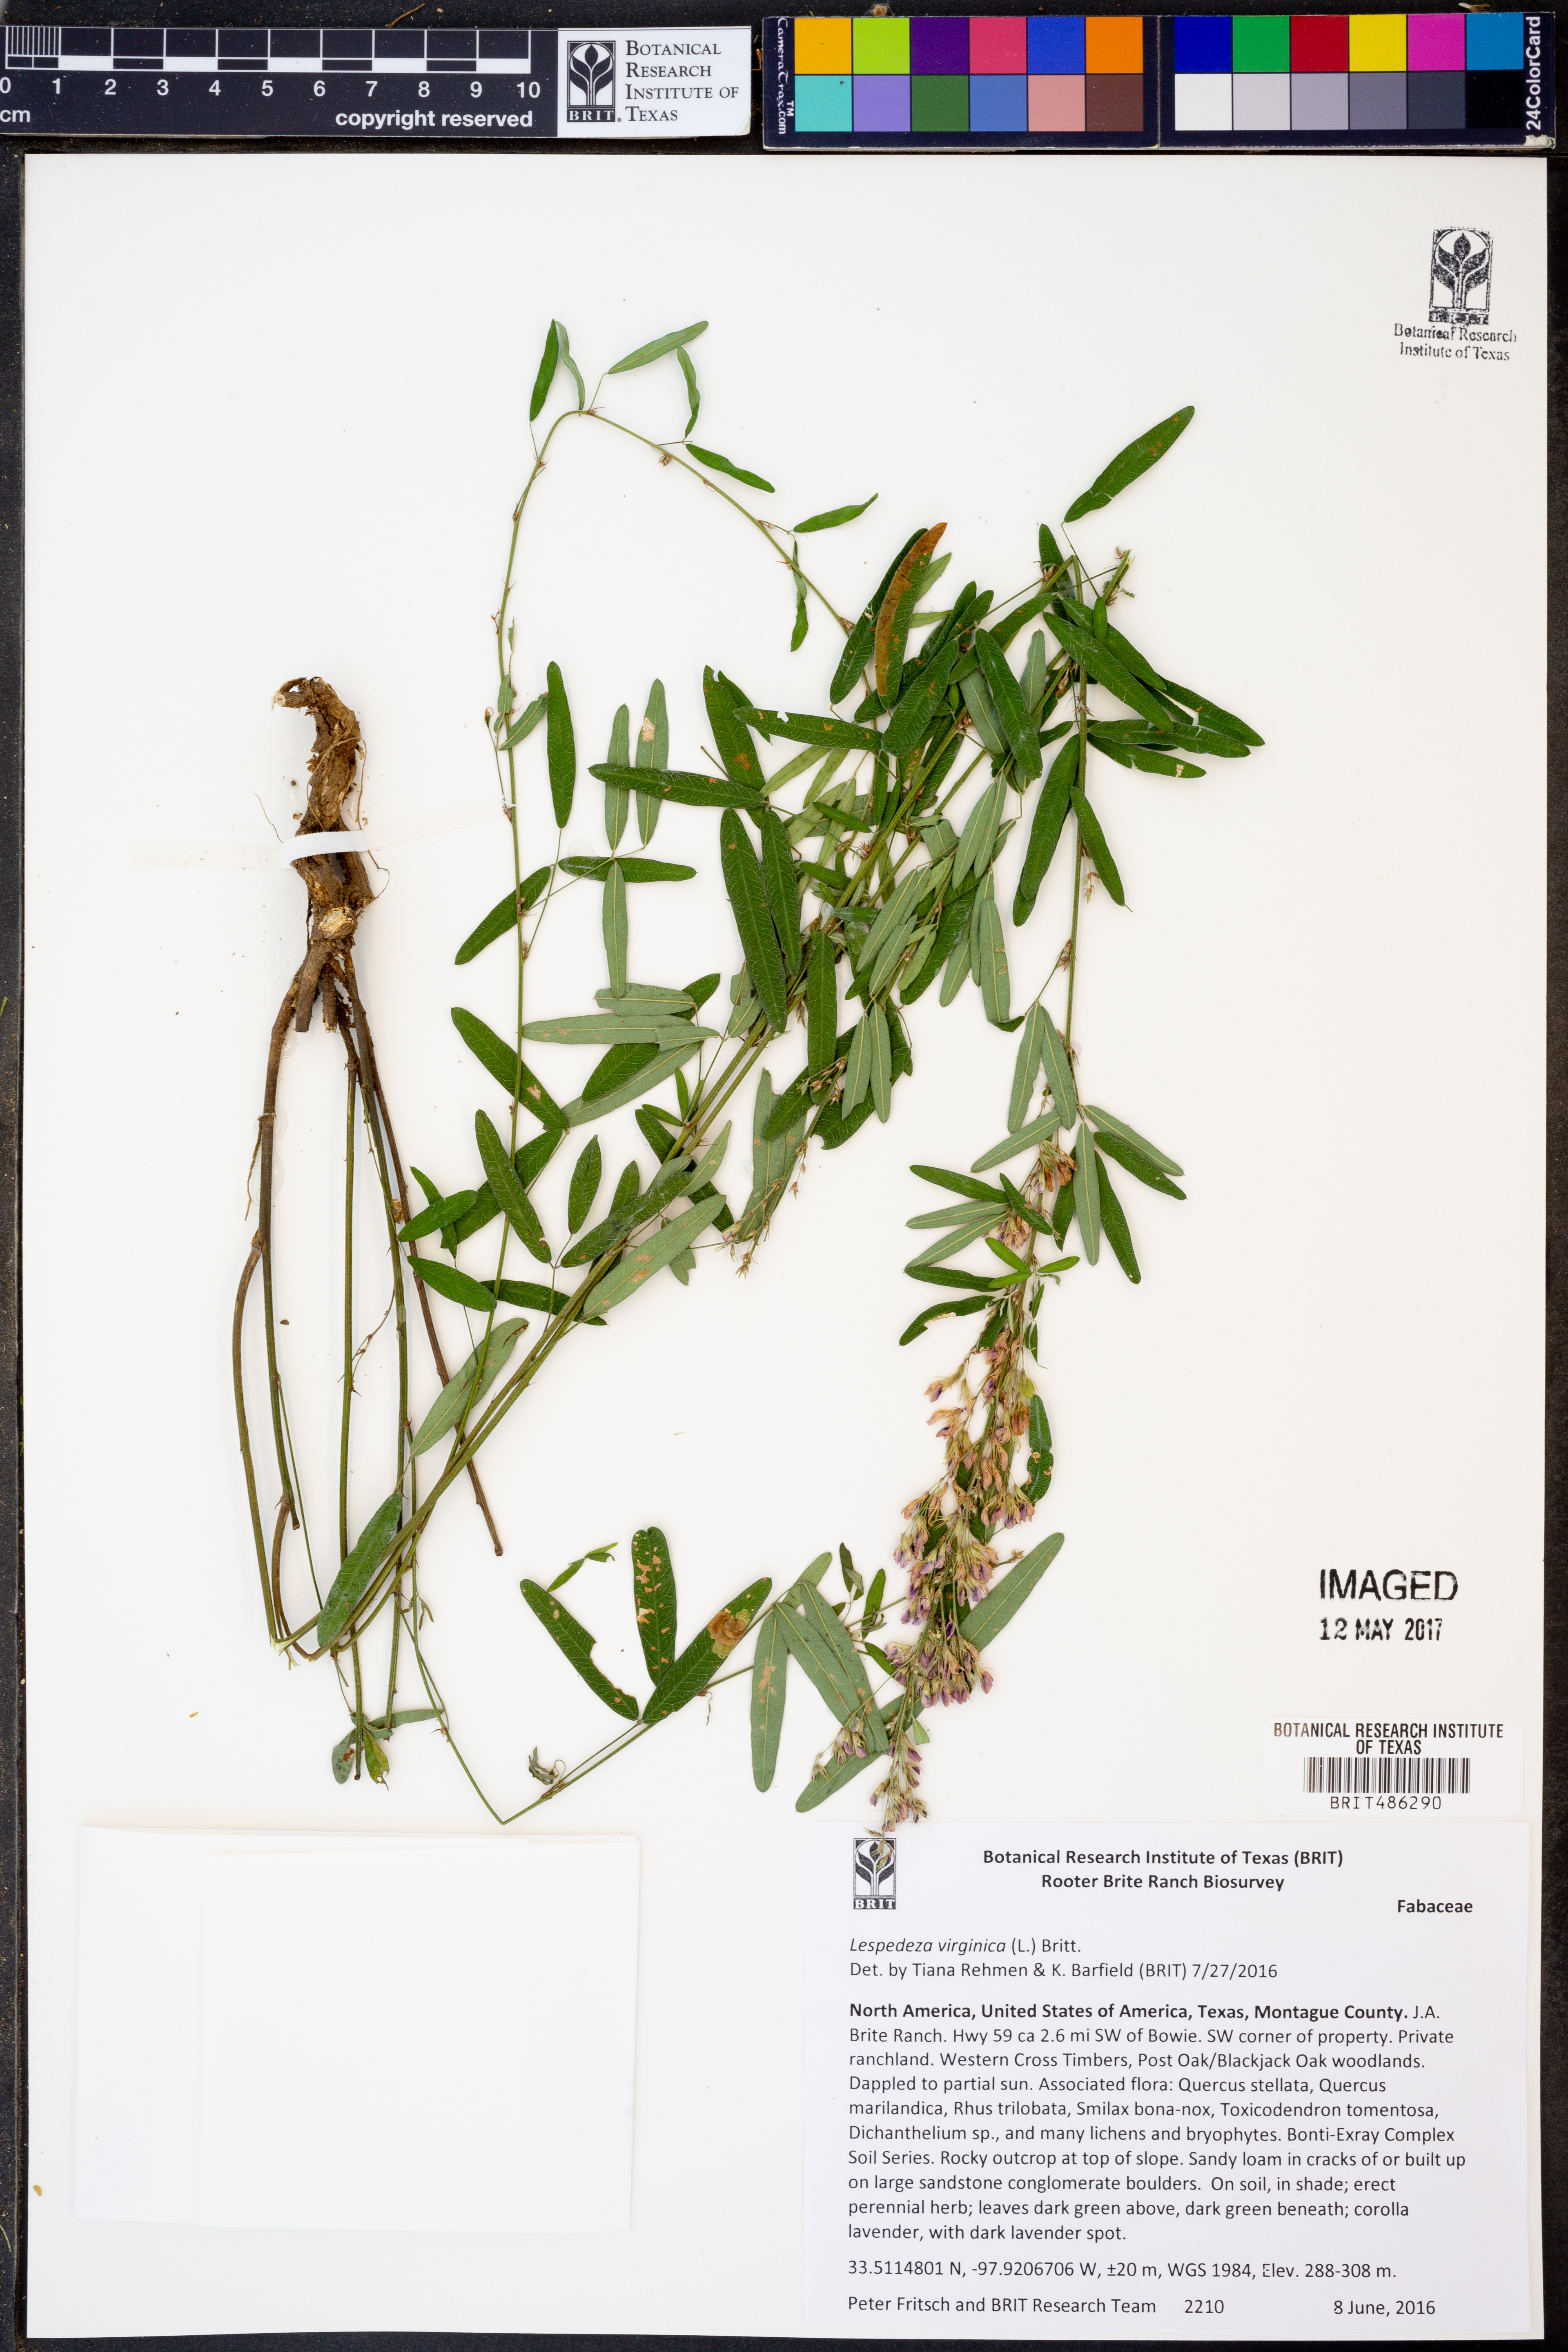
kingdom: Plantae
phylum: Tracheophyta
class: Magnoliopsida
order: Fabales
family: Fabaceae
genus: Lespedeza
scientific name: Lespedeza virginica
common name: Slender bush-clover
